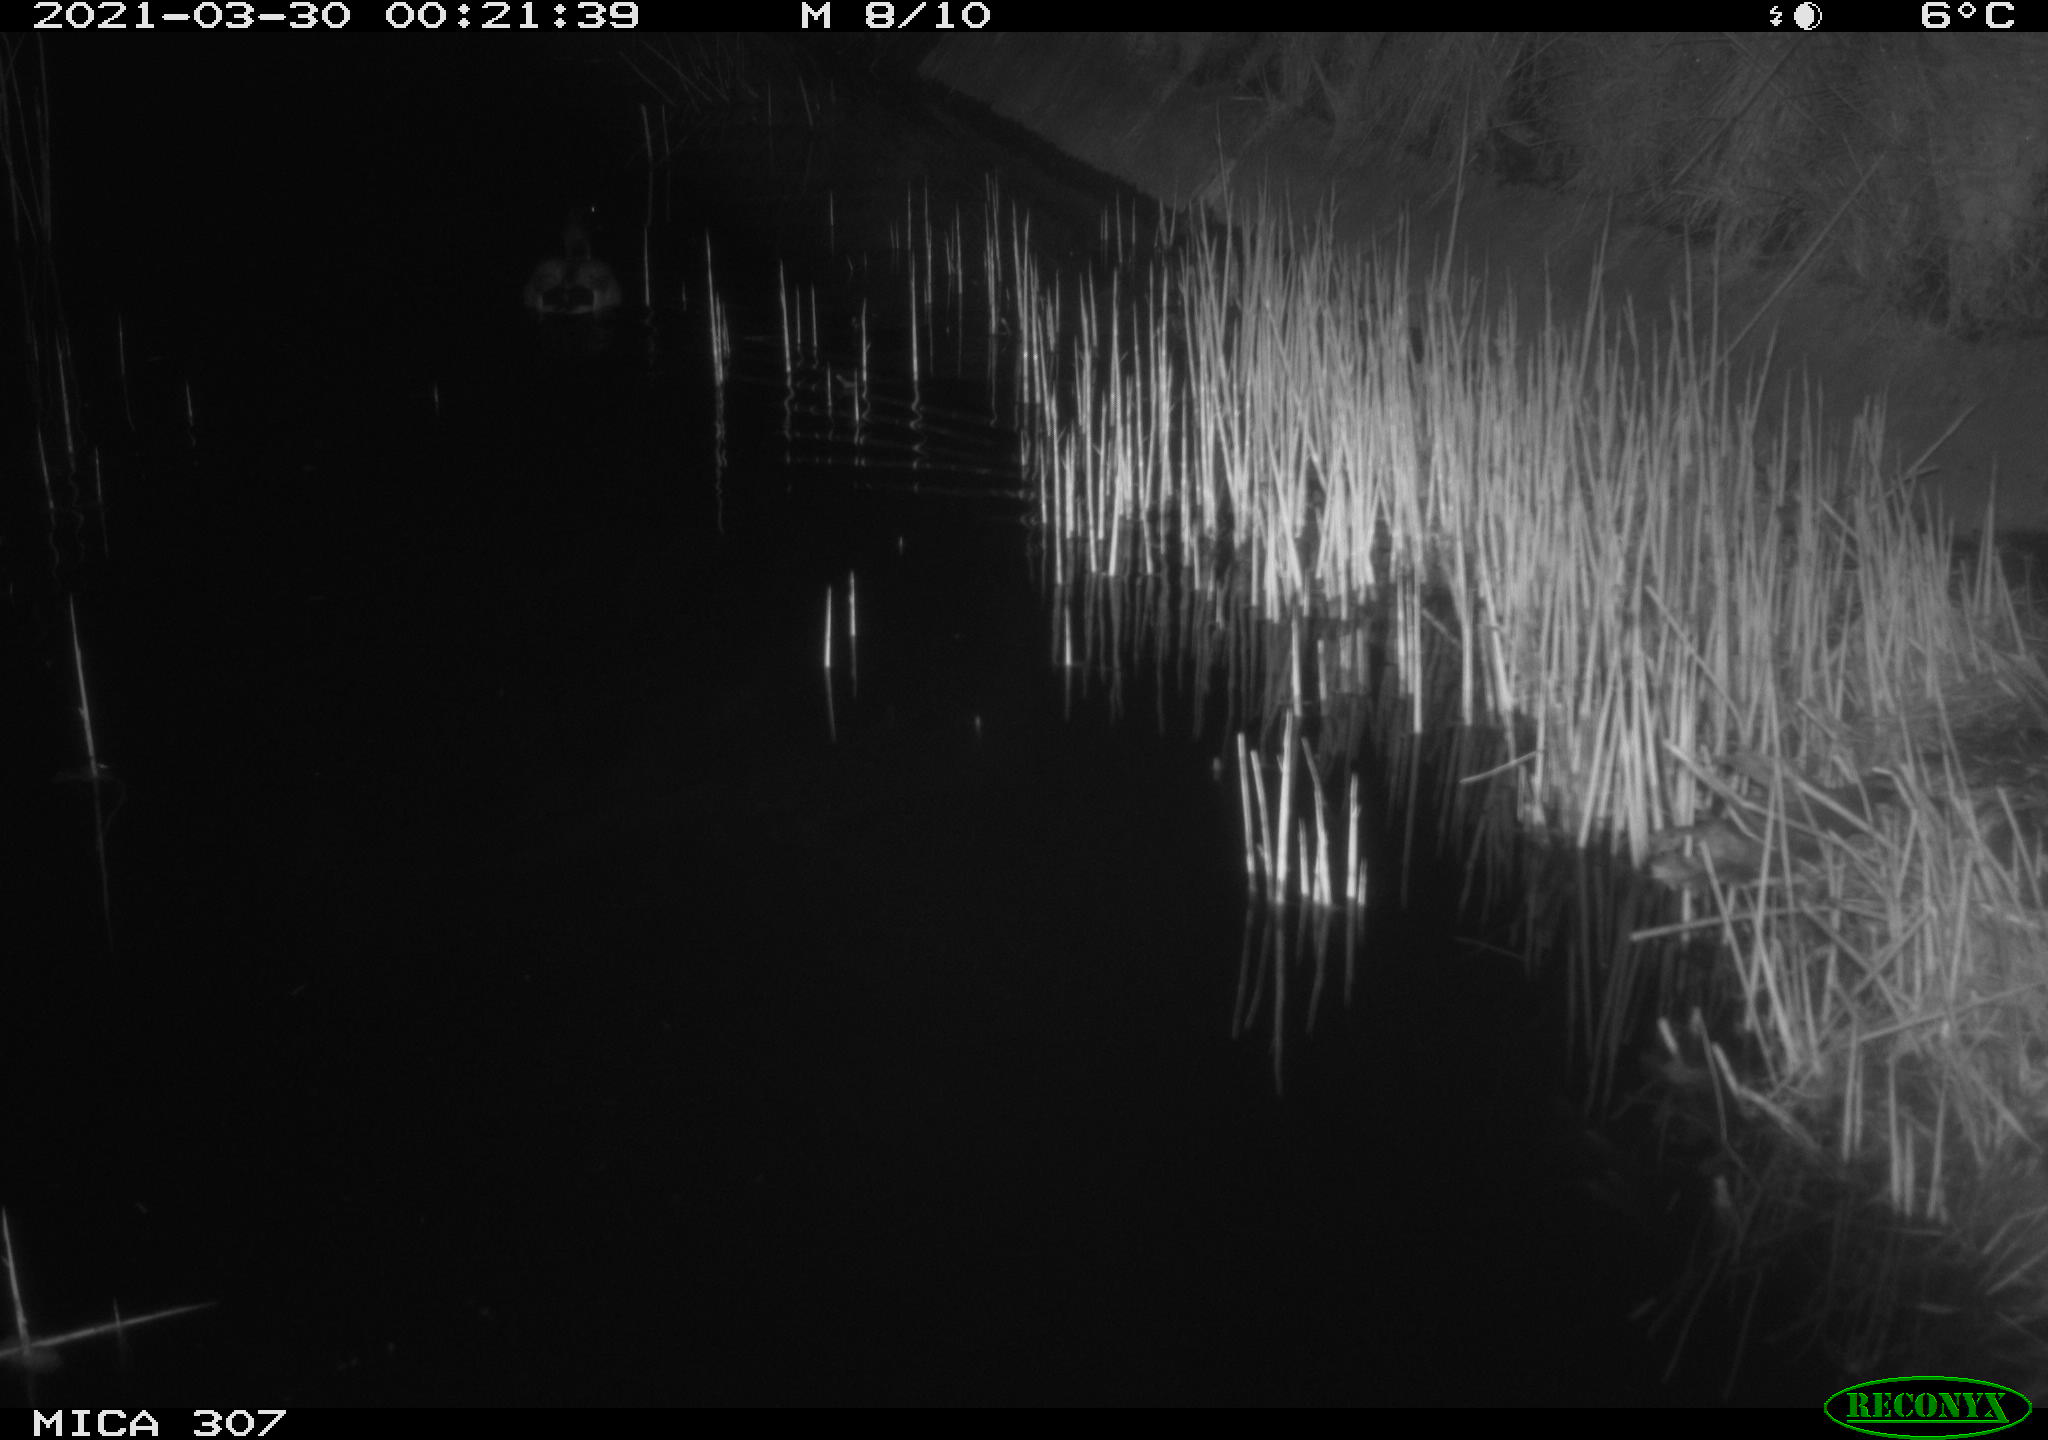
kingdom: Animalia
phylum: Chordata
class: Aves
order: Anseriformes
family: Anatidae
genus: Anas
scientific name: Anas platyrhynchos
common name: Mallard
